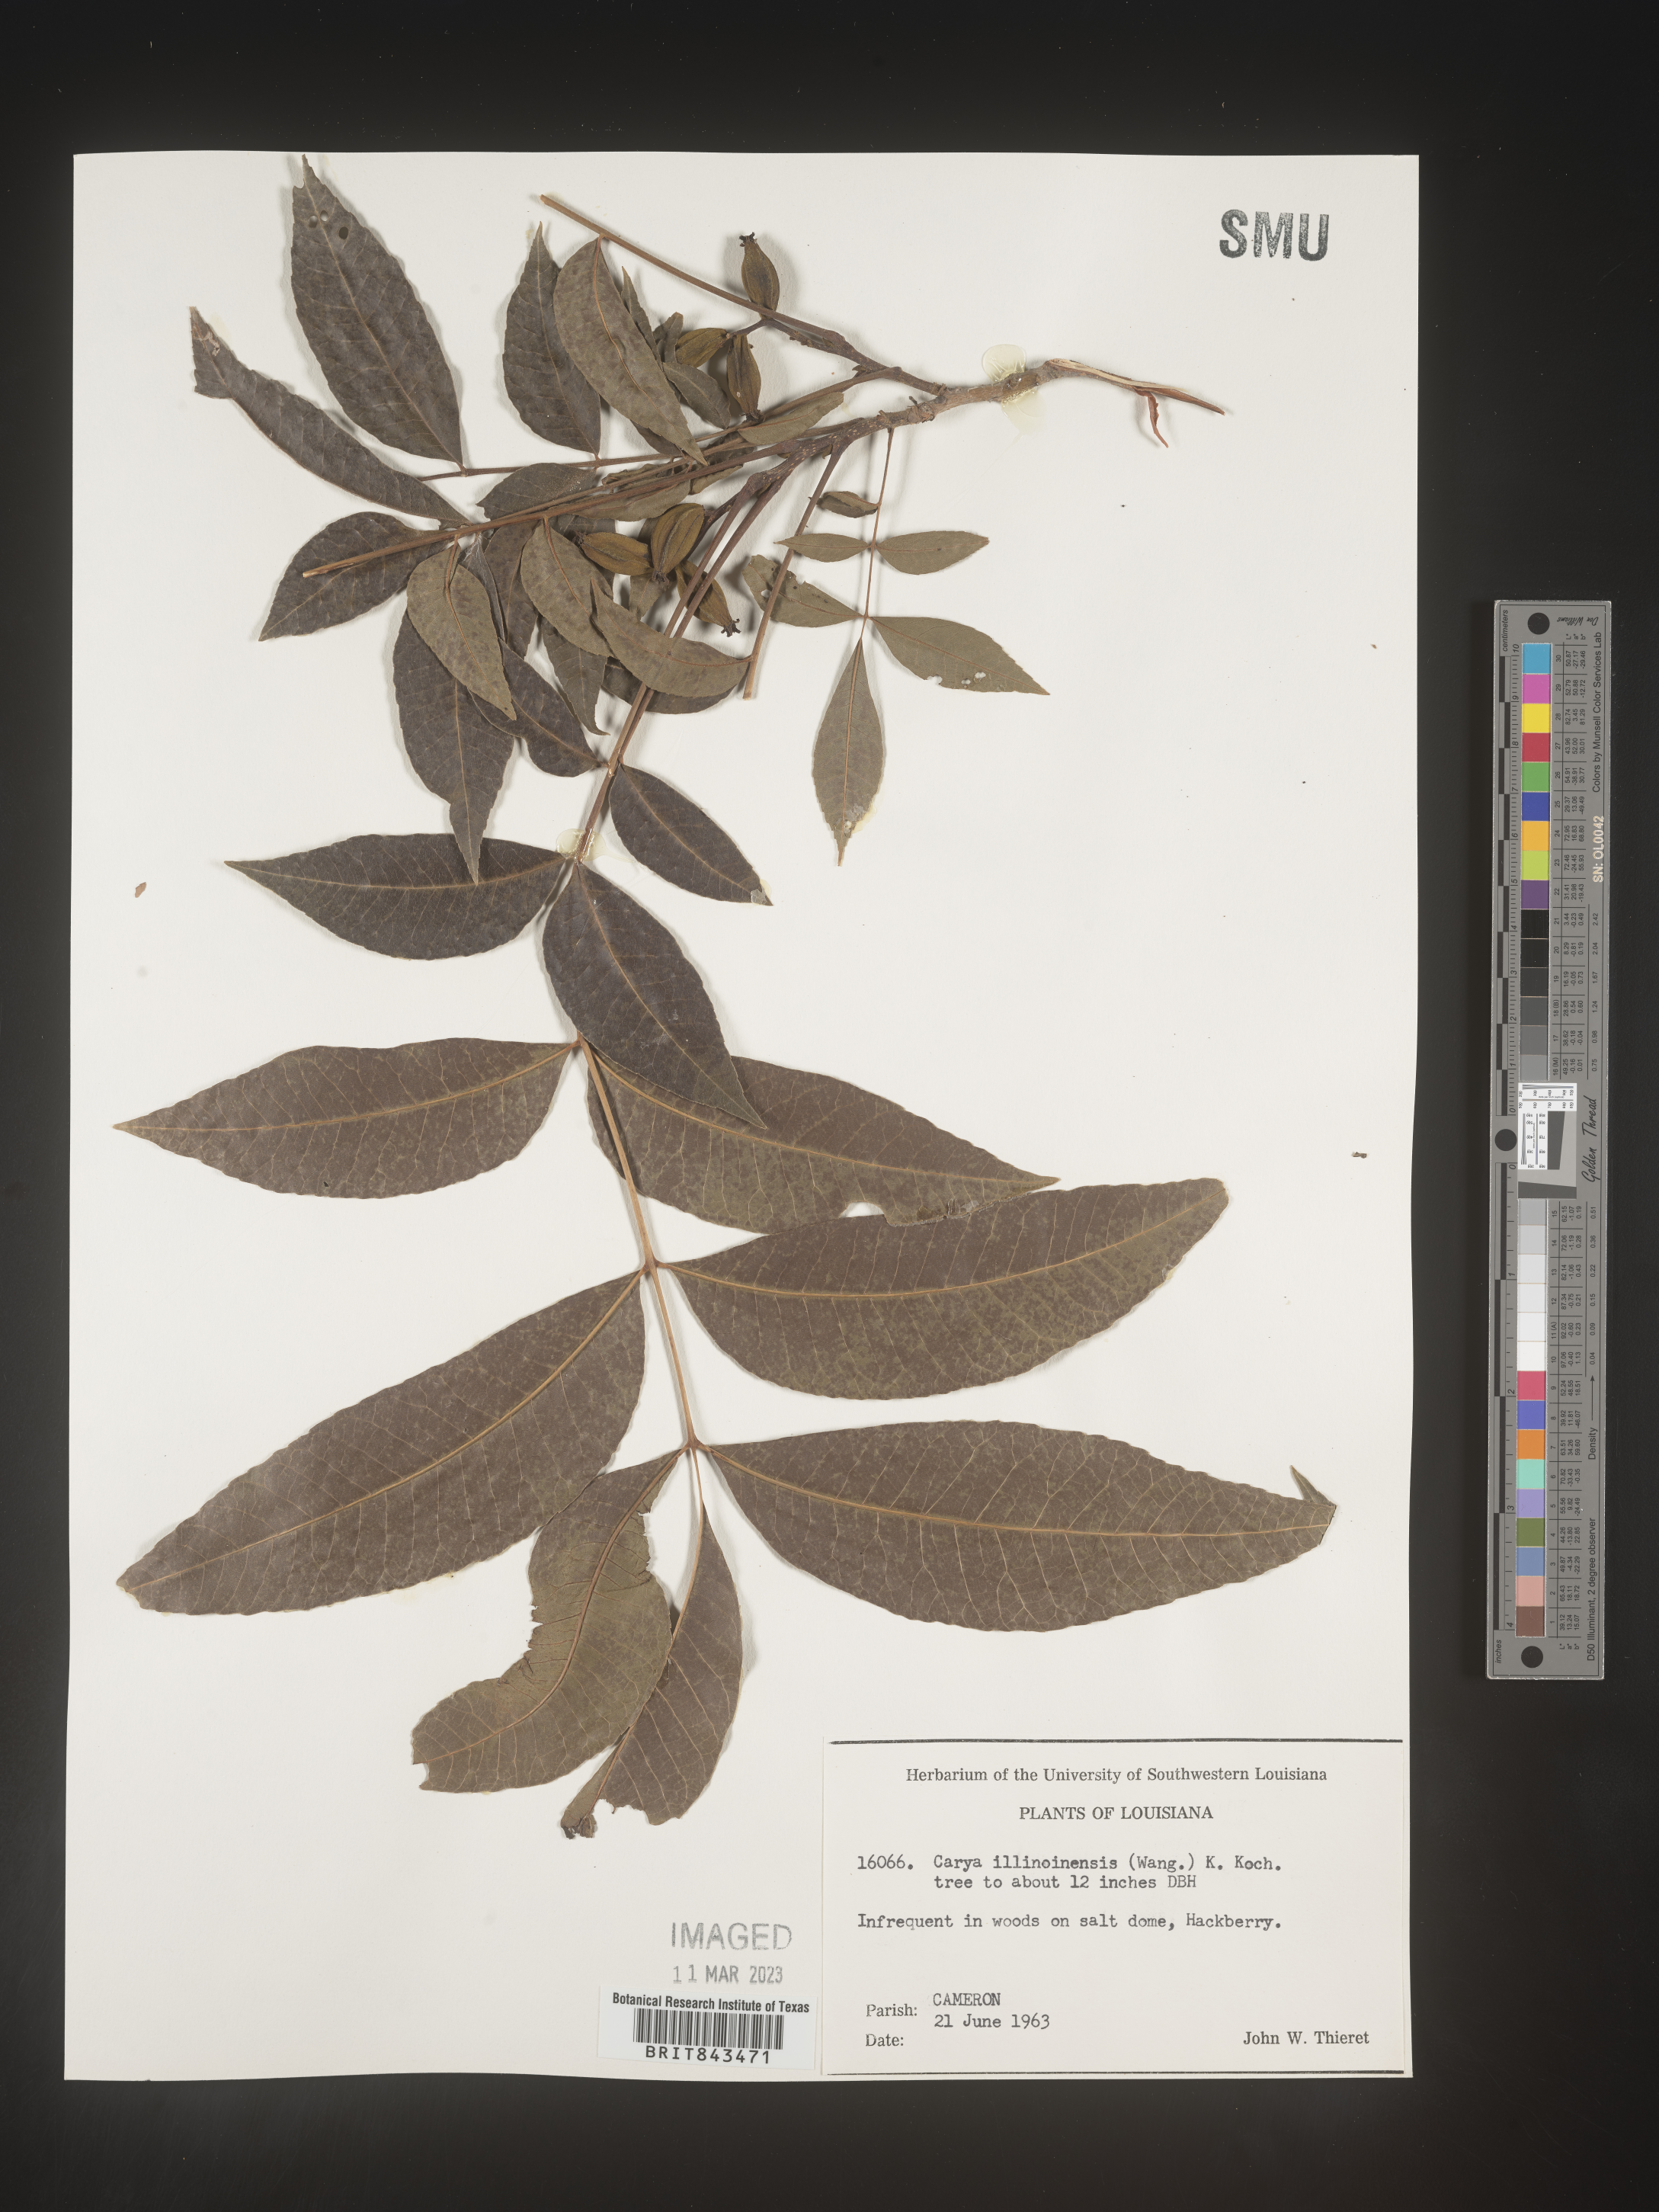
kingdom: Plantae
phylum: Tracheophyta
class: Magnoliopsida
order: Fagales
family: Juglandaceae
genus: Carya
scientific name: Carya illinoinensis
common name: Pecan
